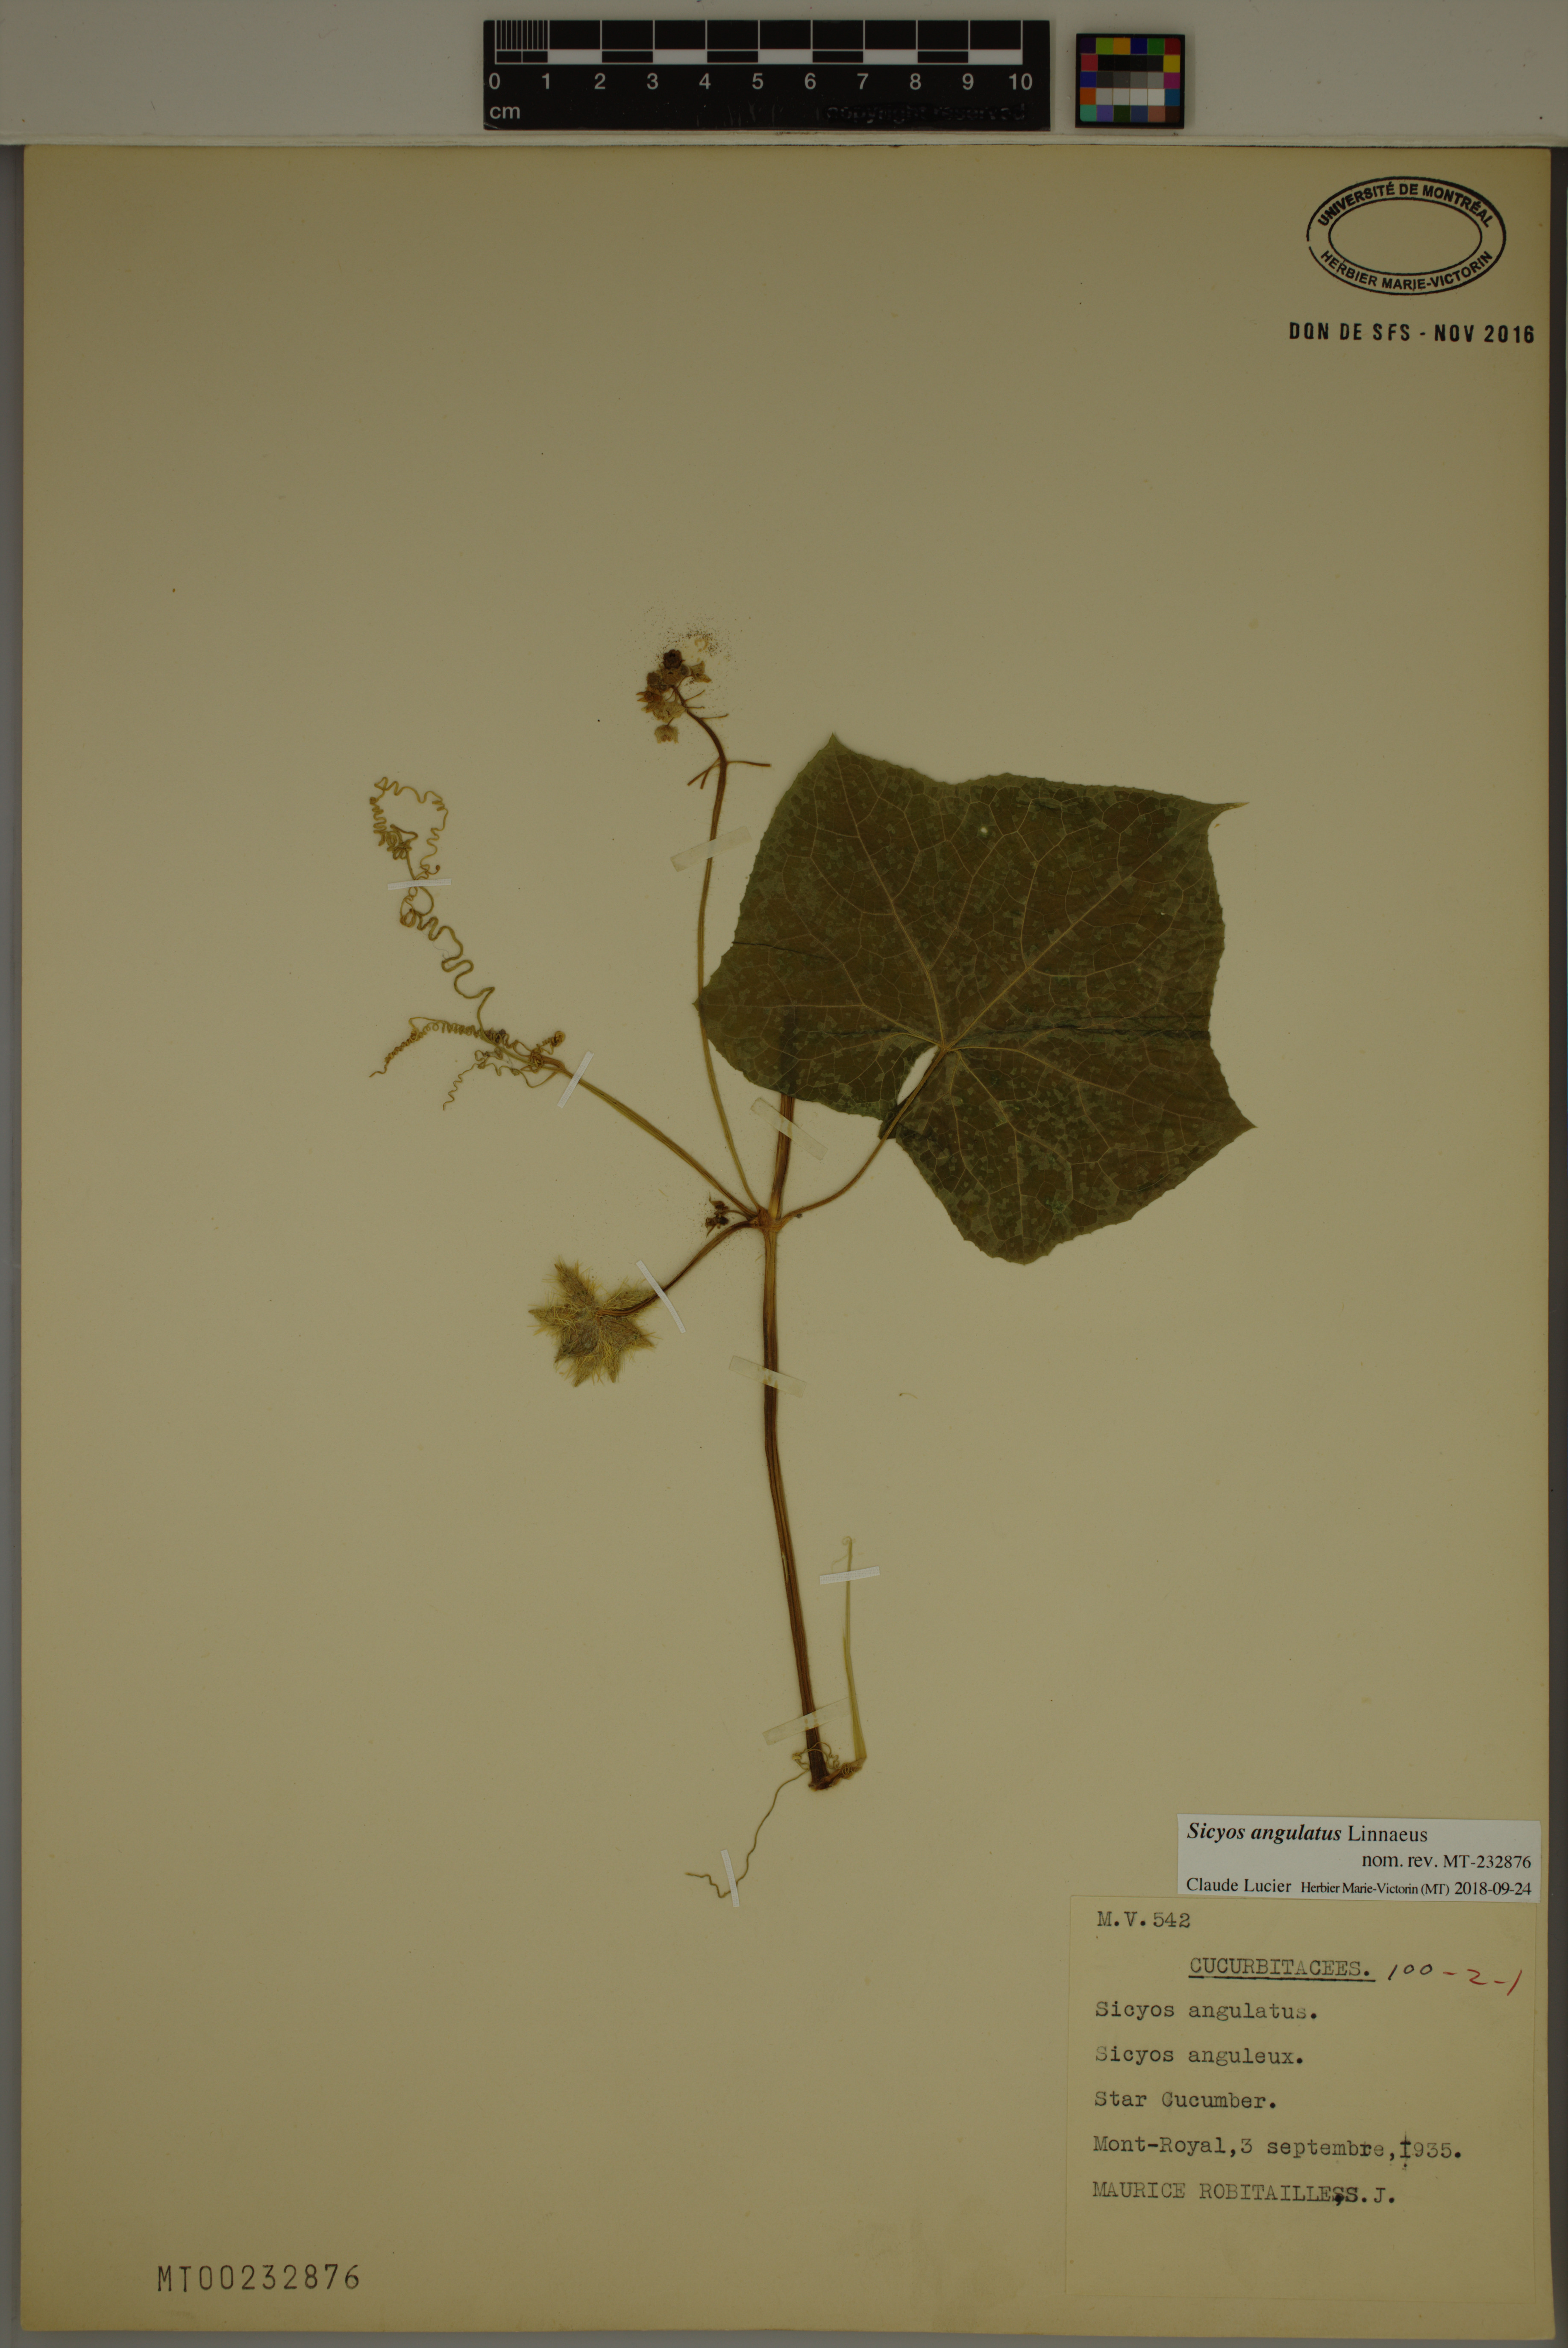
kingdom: Plantae
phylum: Tracheophyta
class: Magnoliopsida
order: Cucurbitales
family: Cucurbitaceae
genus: Sicyos
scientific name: Sicyos angulatus
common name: Angled burr cucumber
